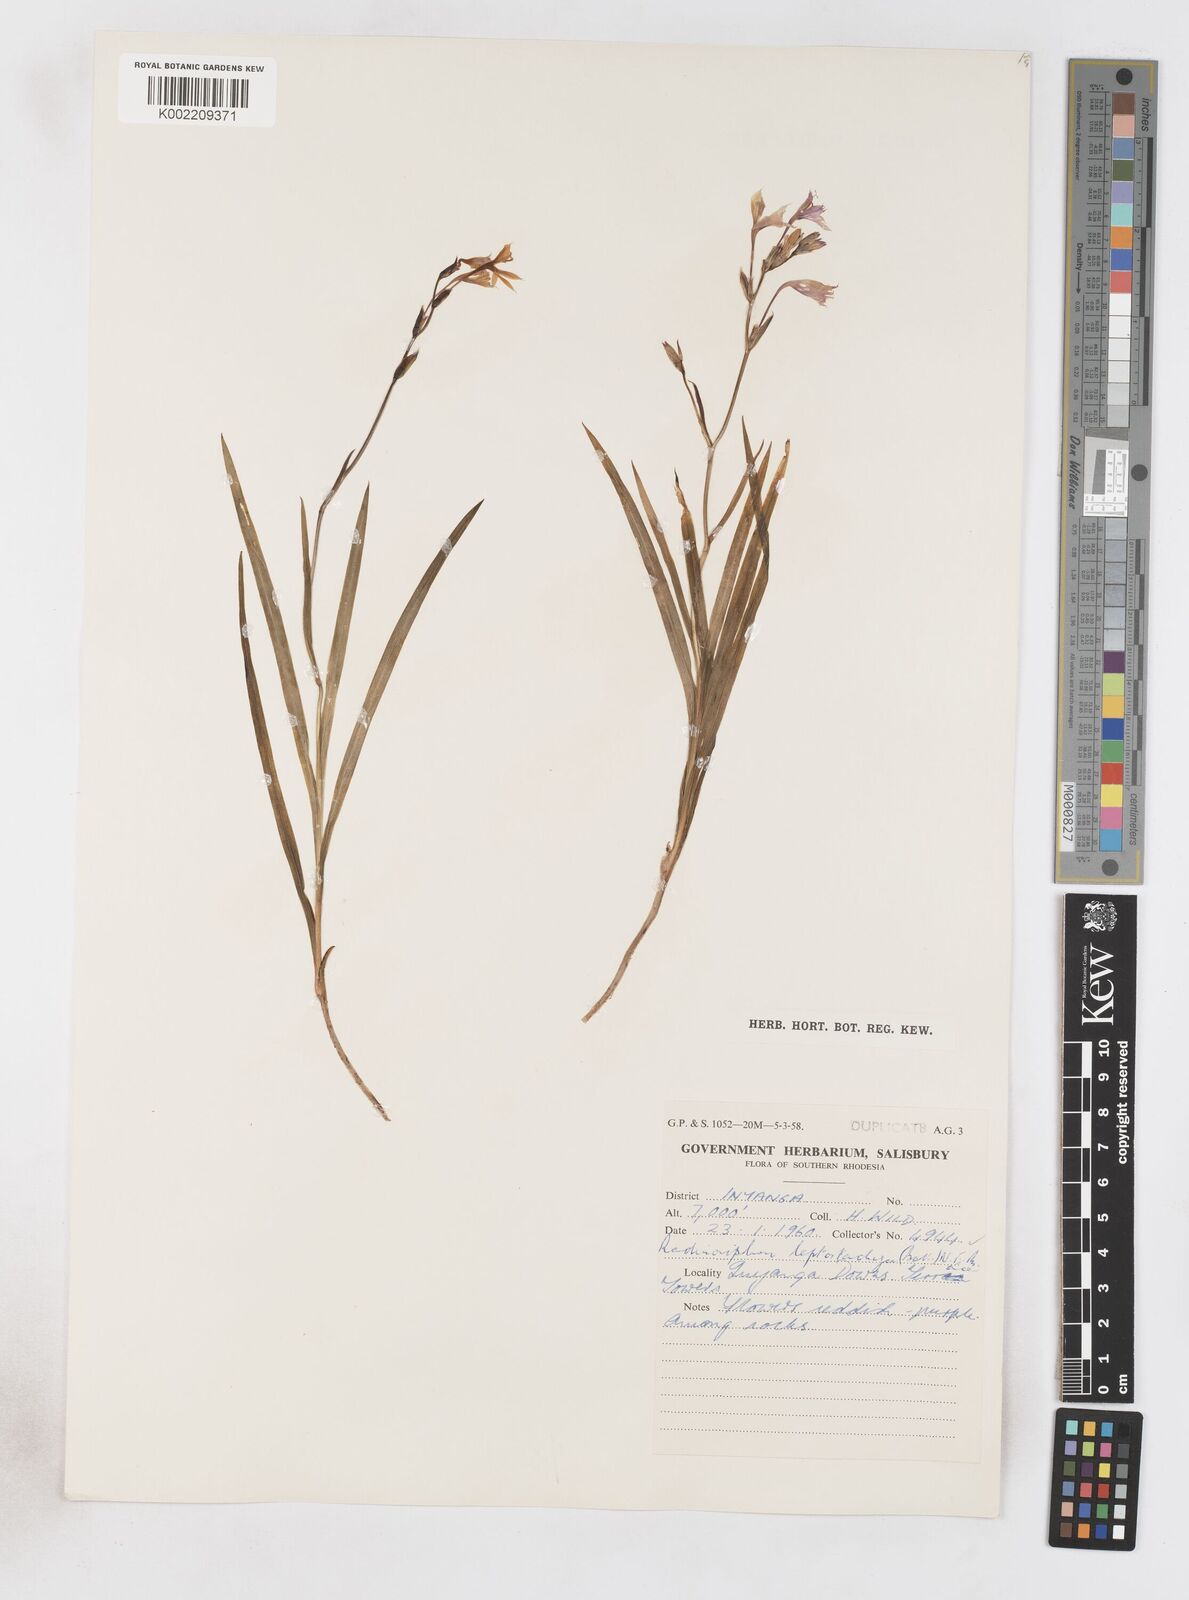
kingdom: Plantae
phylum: Tracheophyta
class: Liliopsida
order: Asparagales
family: Iridaceae
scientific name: Iridaceae
